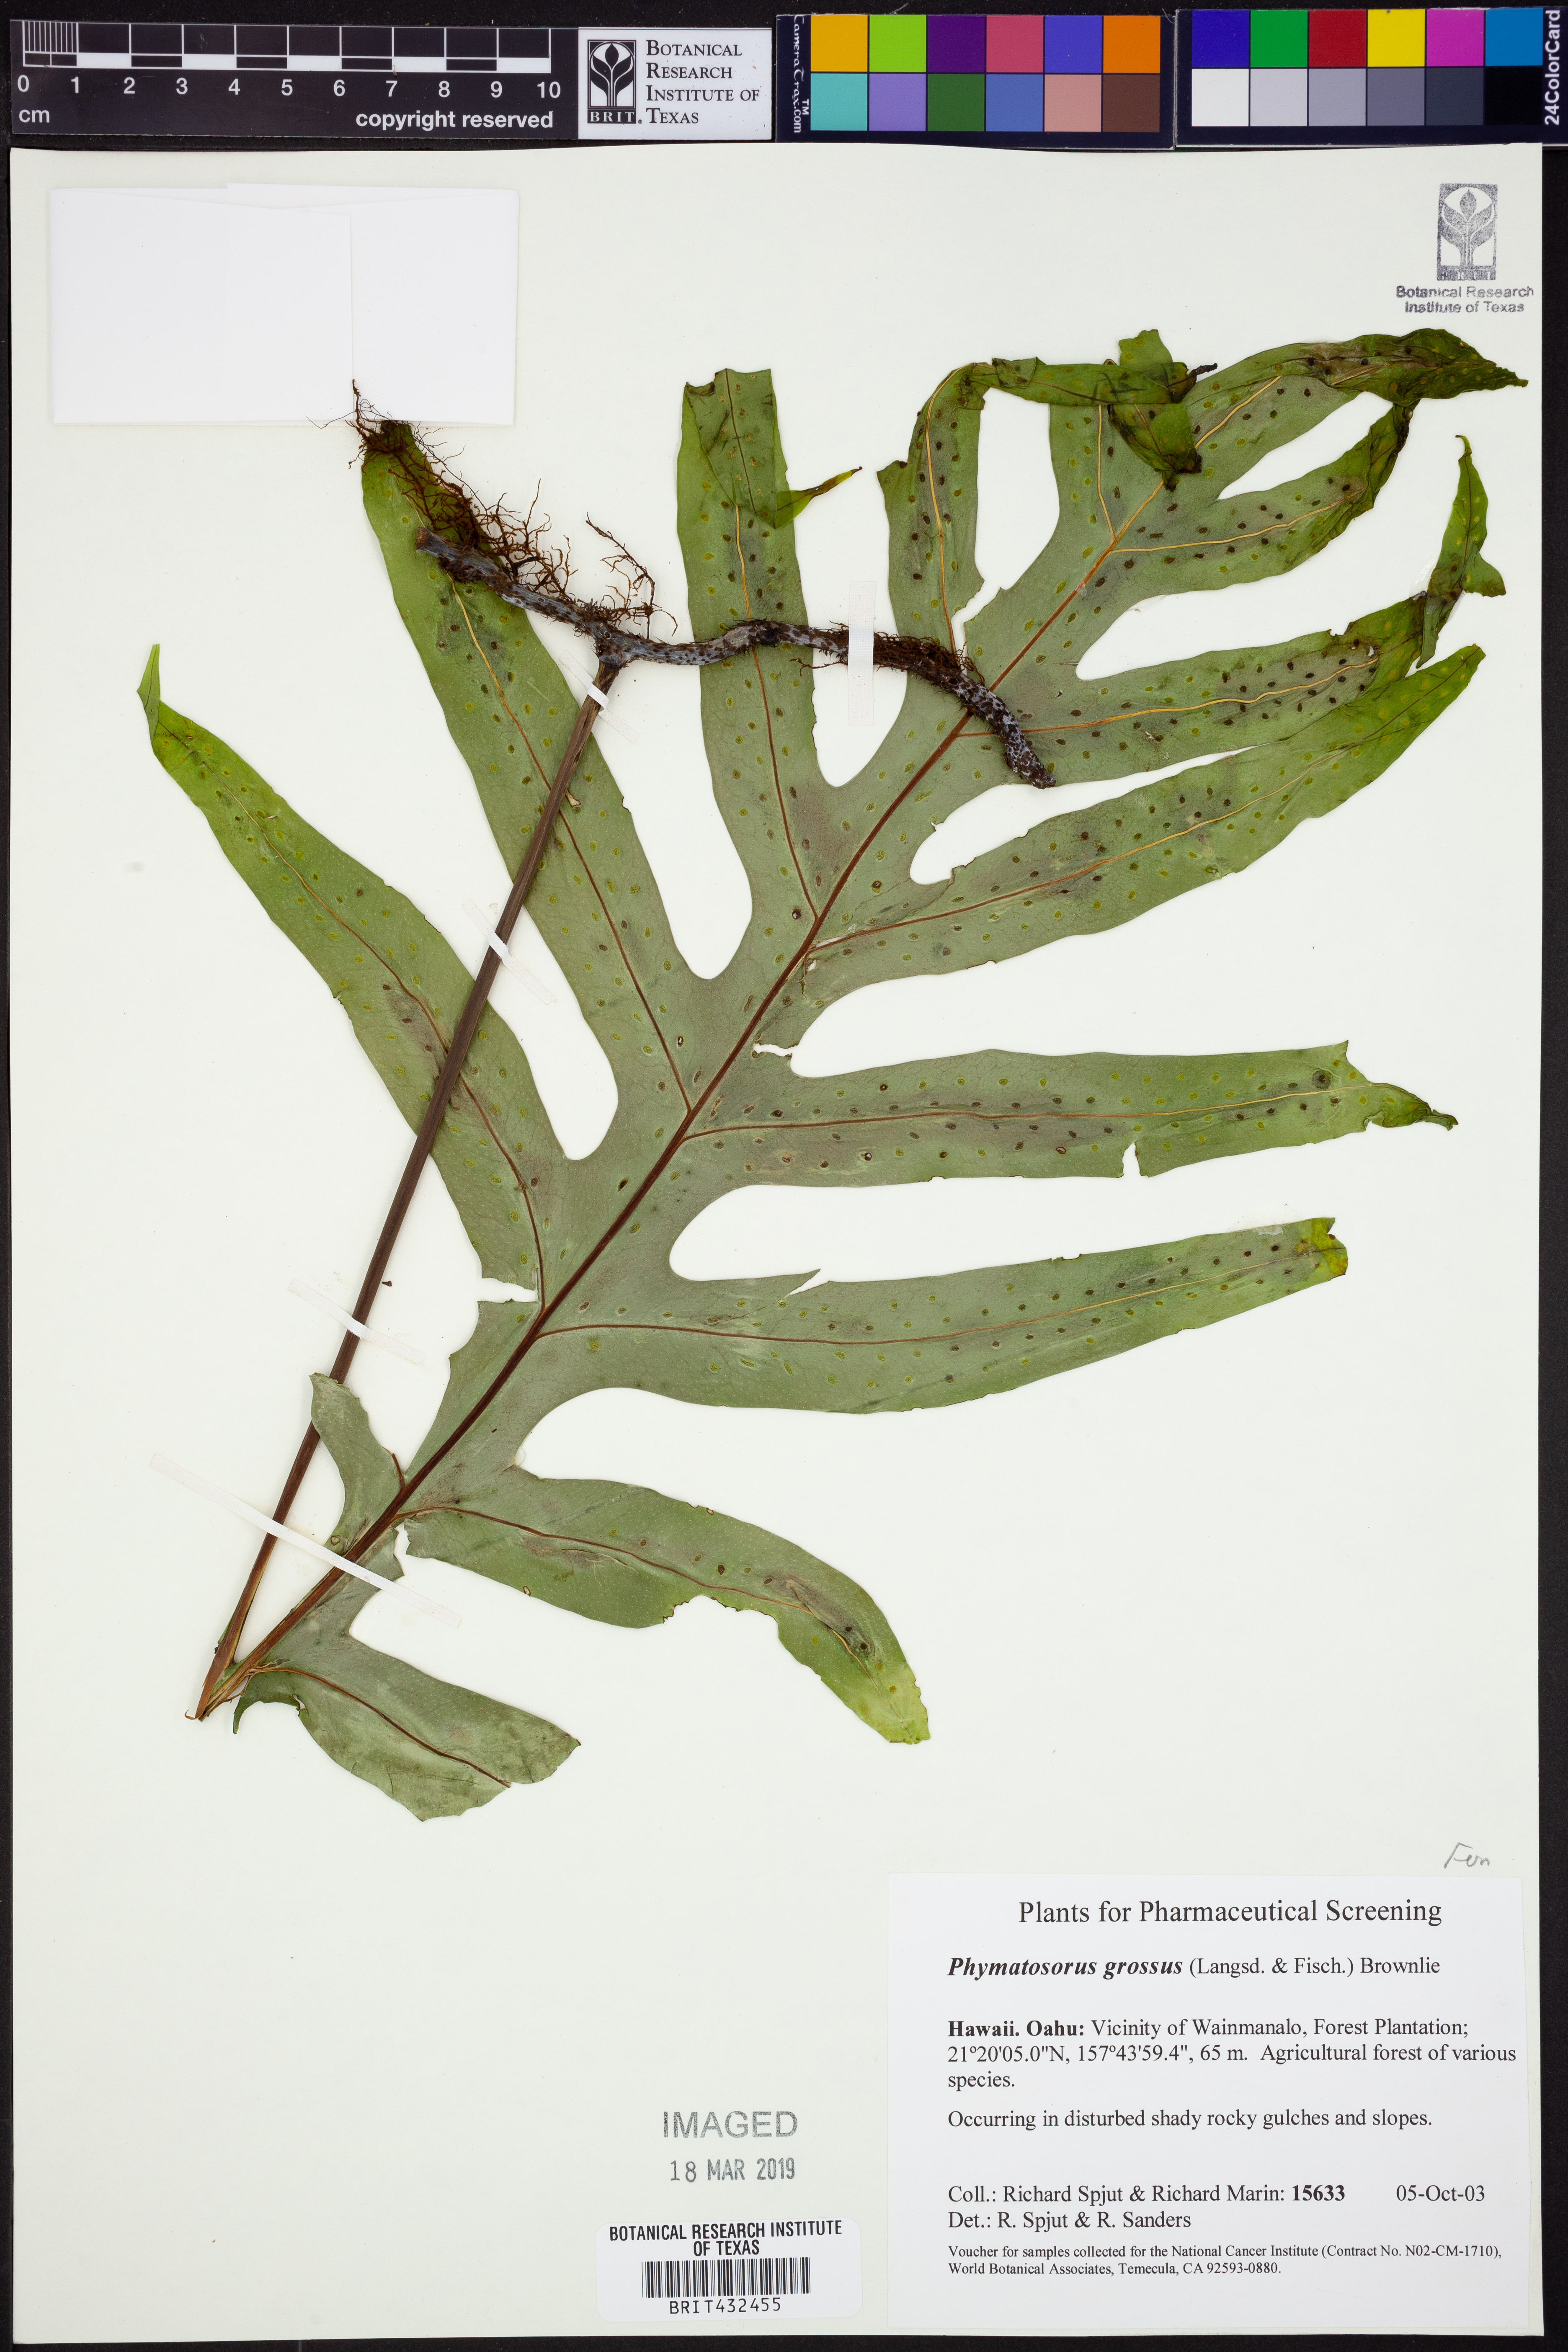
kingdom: Plantae
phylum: Tracheophyta
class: Polypodiopsida
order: Polypodiales
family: Polypodiaceae
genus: Microsorum
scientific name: Microsorum grossum
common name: Musk fern
